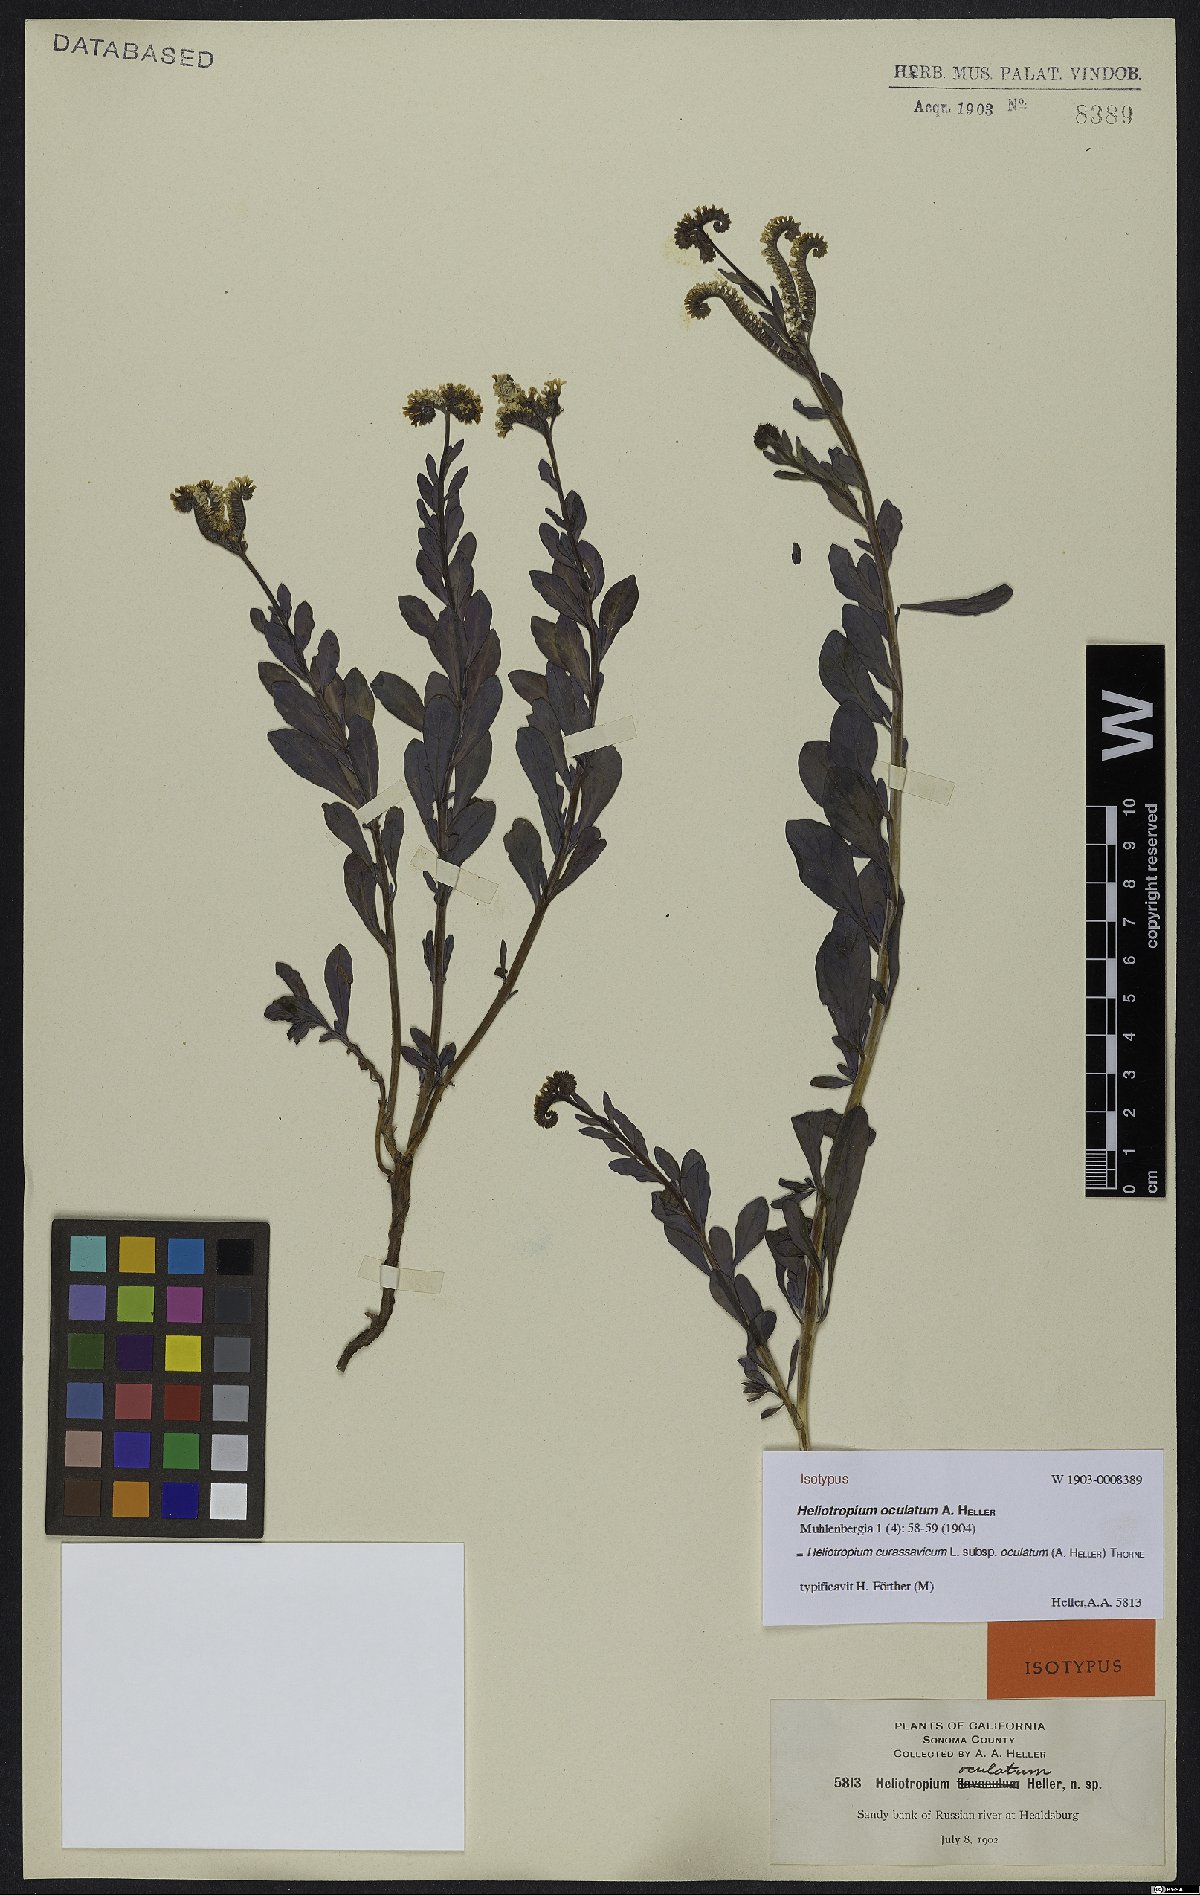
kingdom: Plantae
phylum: Tracheophyta
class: Magnoliopsida
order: Boraginales
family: Heliotropiaceae
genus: Heliotropium
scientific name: Heliotropium curassavicum
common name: Seaside heliotrope
